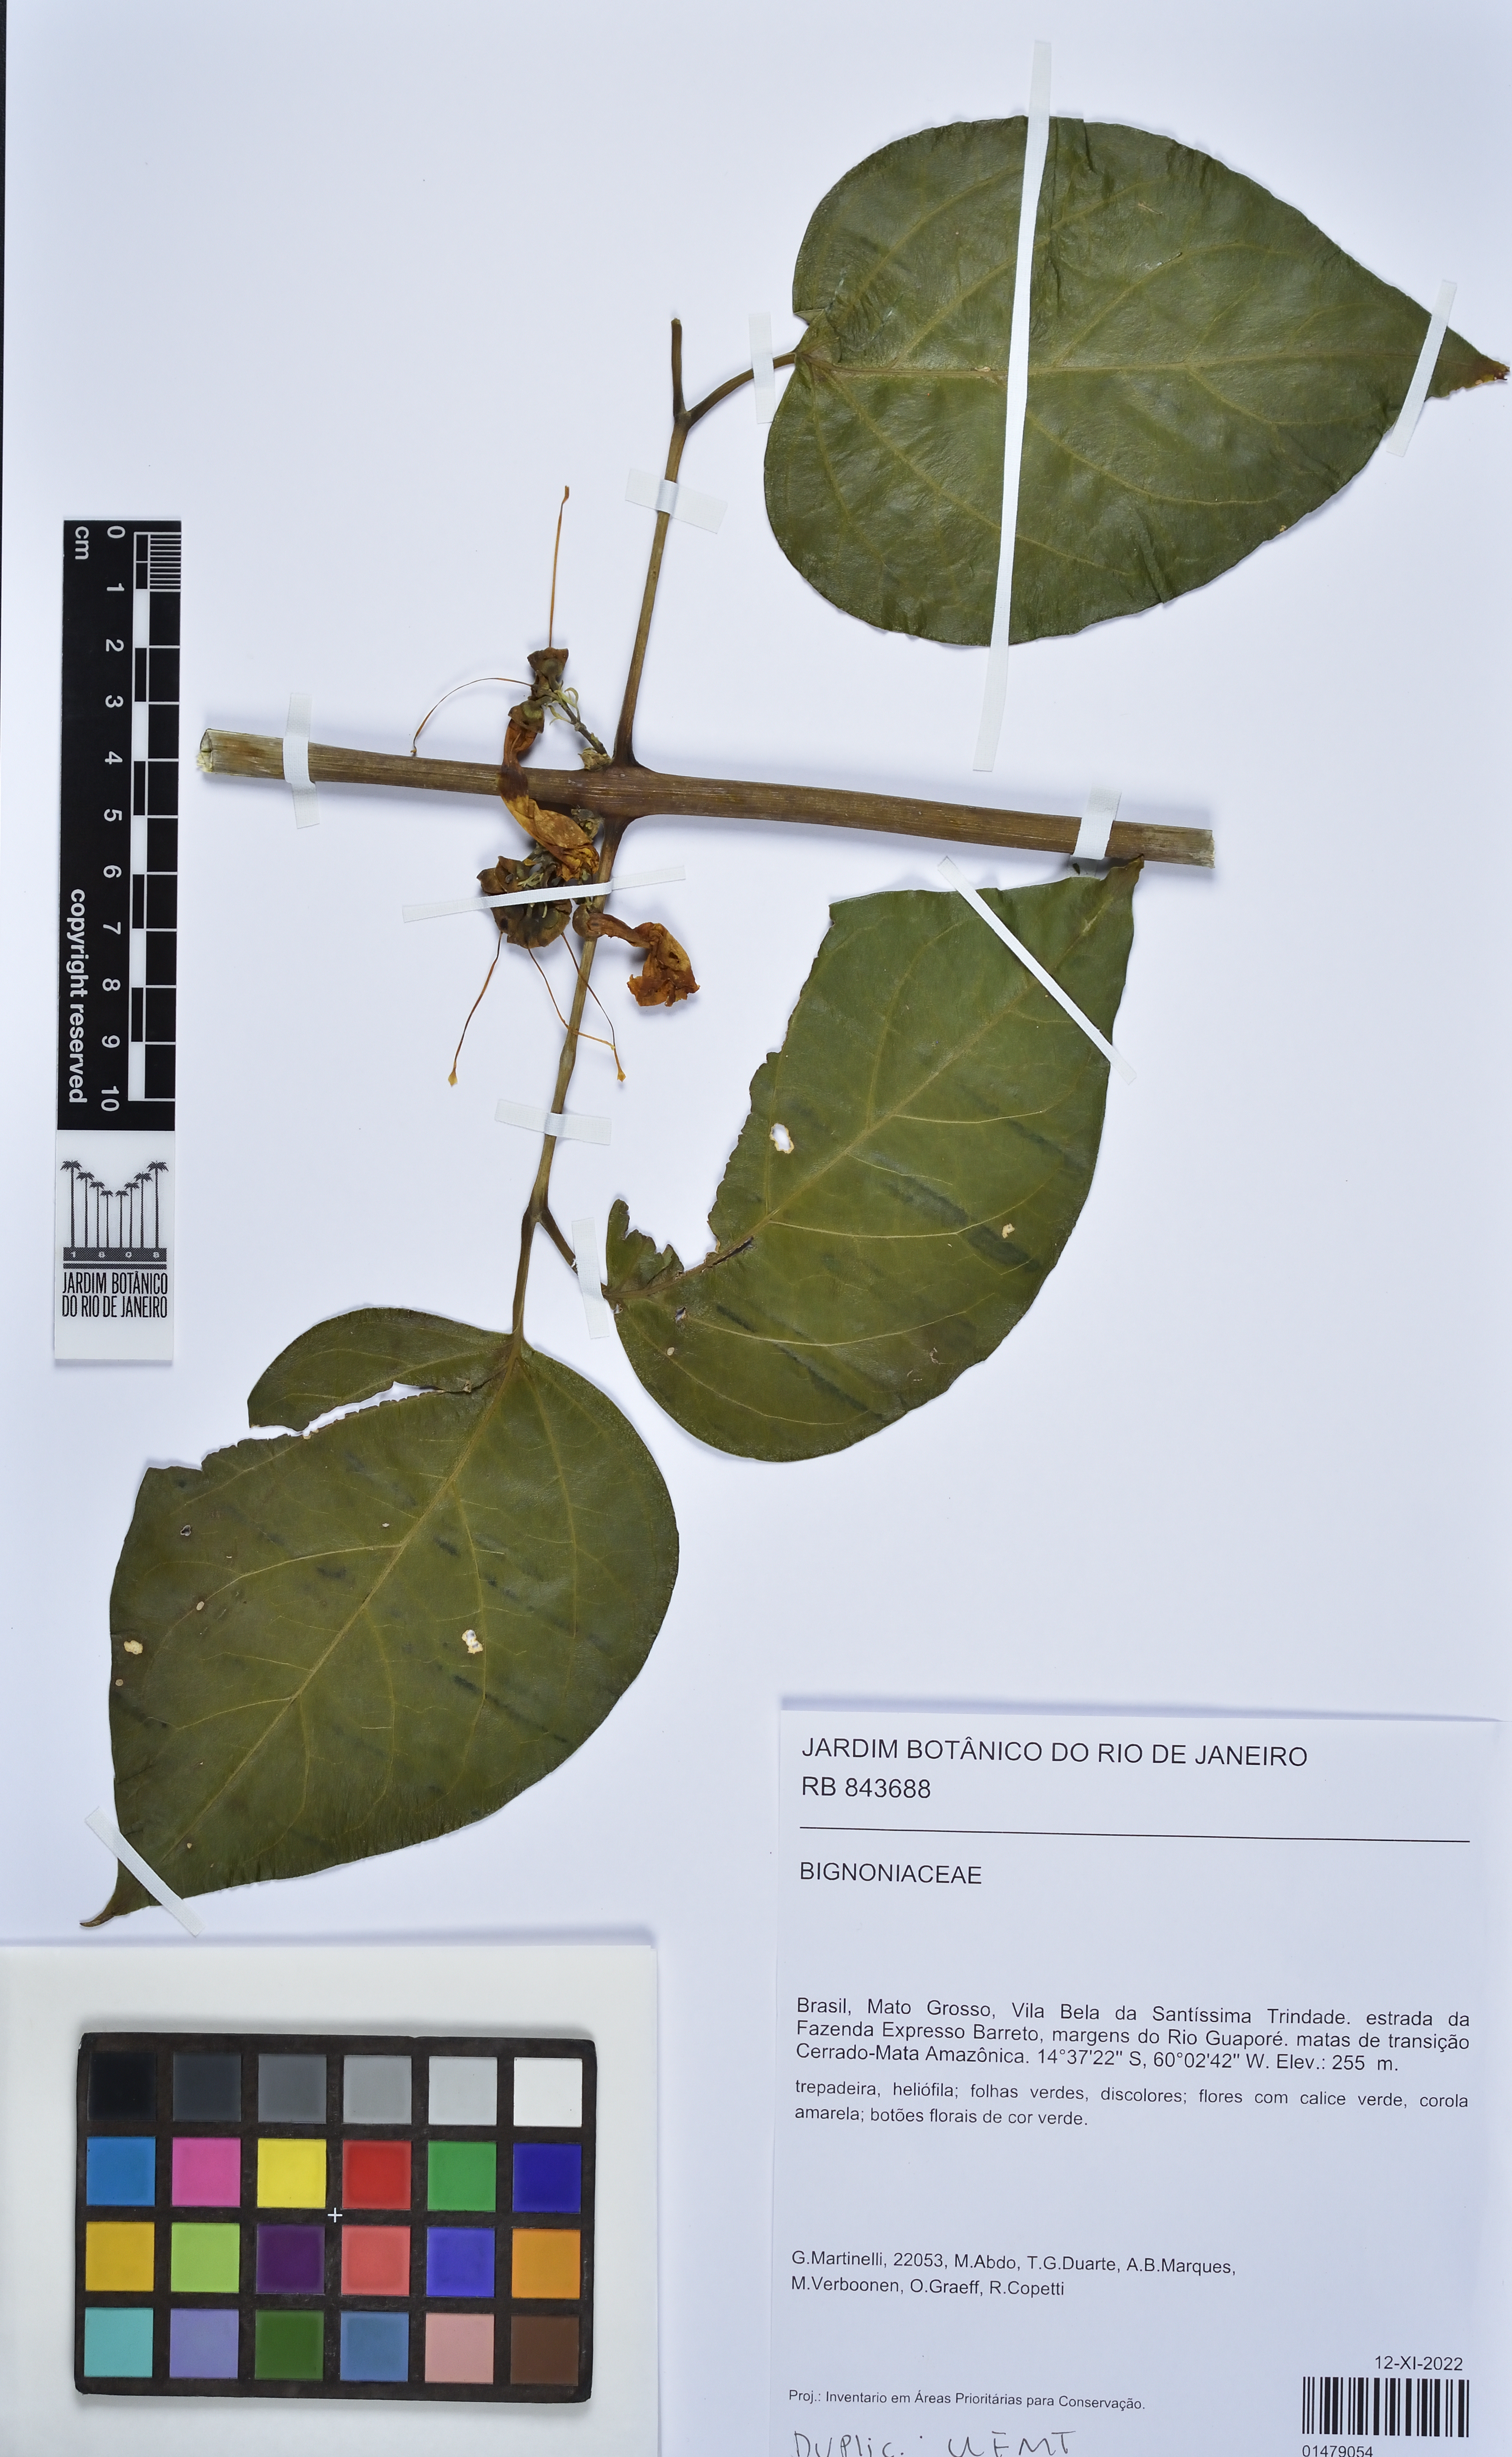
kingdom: Plantae
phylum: Tracheophyta
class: Magnoliopsida
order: Lamiales
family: Bignoniaceae
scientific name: Bignoniaceae
